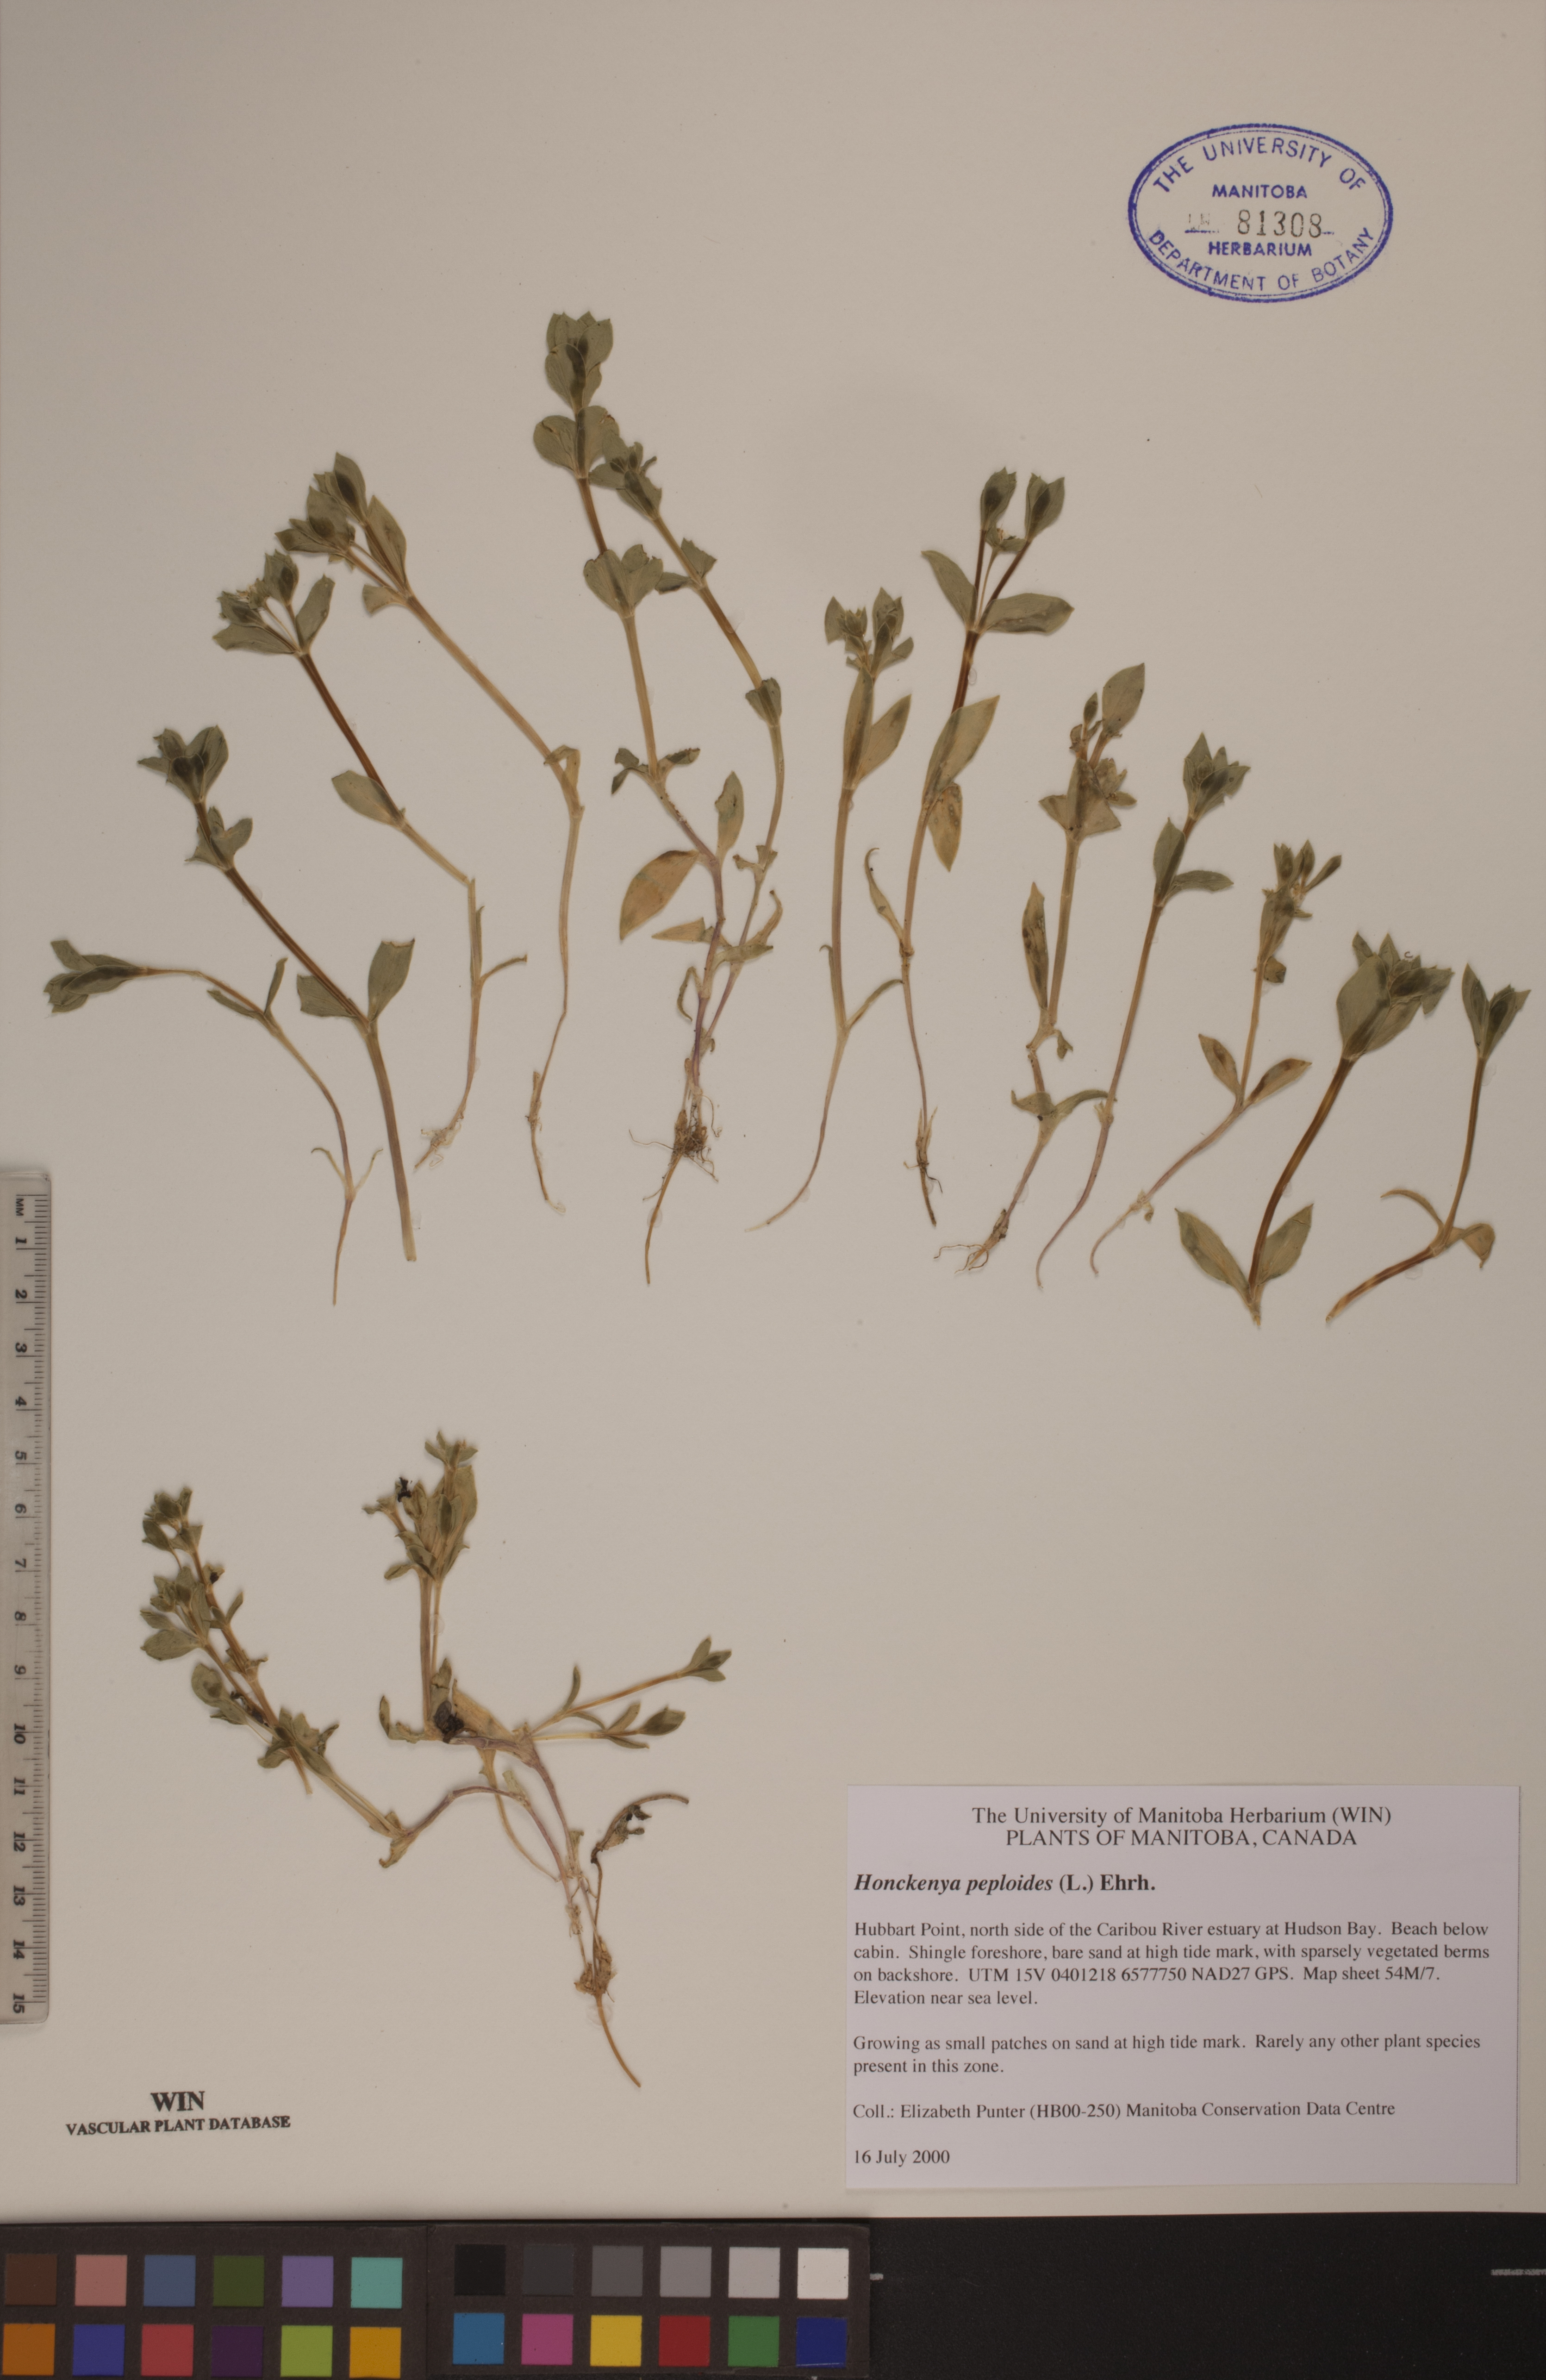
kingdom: Plantae
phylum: Tracheophyta
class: Magnoliopsida
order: Caryophyllales
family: Caryophyllaceae
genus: Honckenya
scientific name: Honckenya peploides
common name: Sea sandwort
